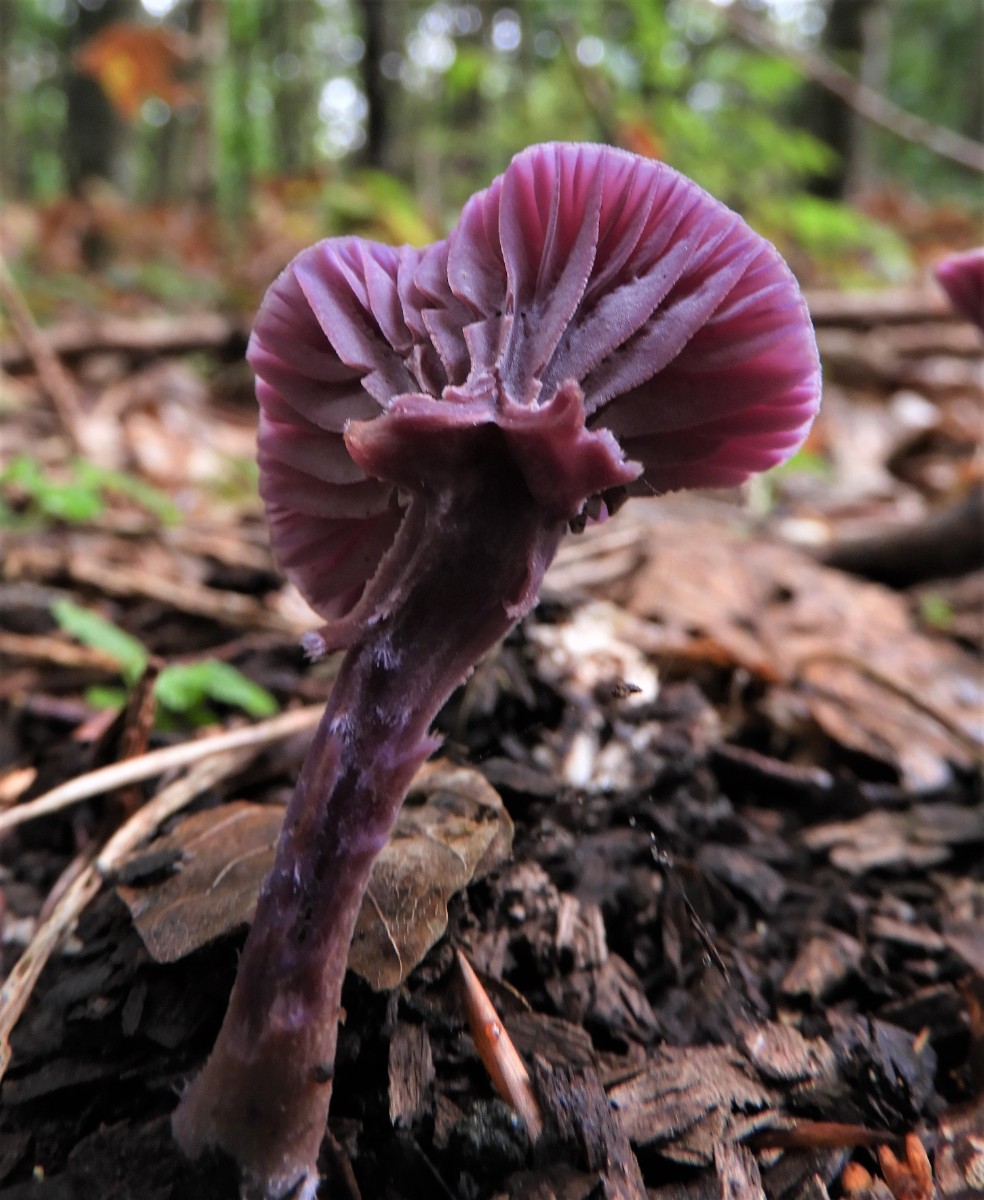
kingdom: Fungi
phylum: Basidiomycota
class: Agaricomycetes
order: Agaricales
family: Hydnangiaceae
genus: Laccaria
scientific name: Laccaria amethystina
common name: violet ametysthat
